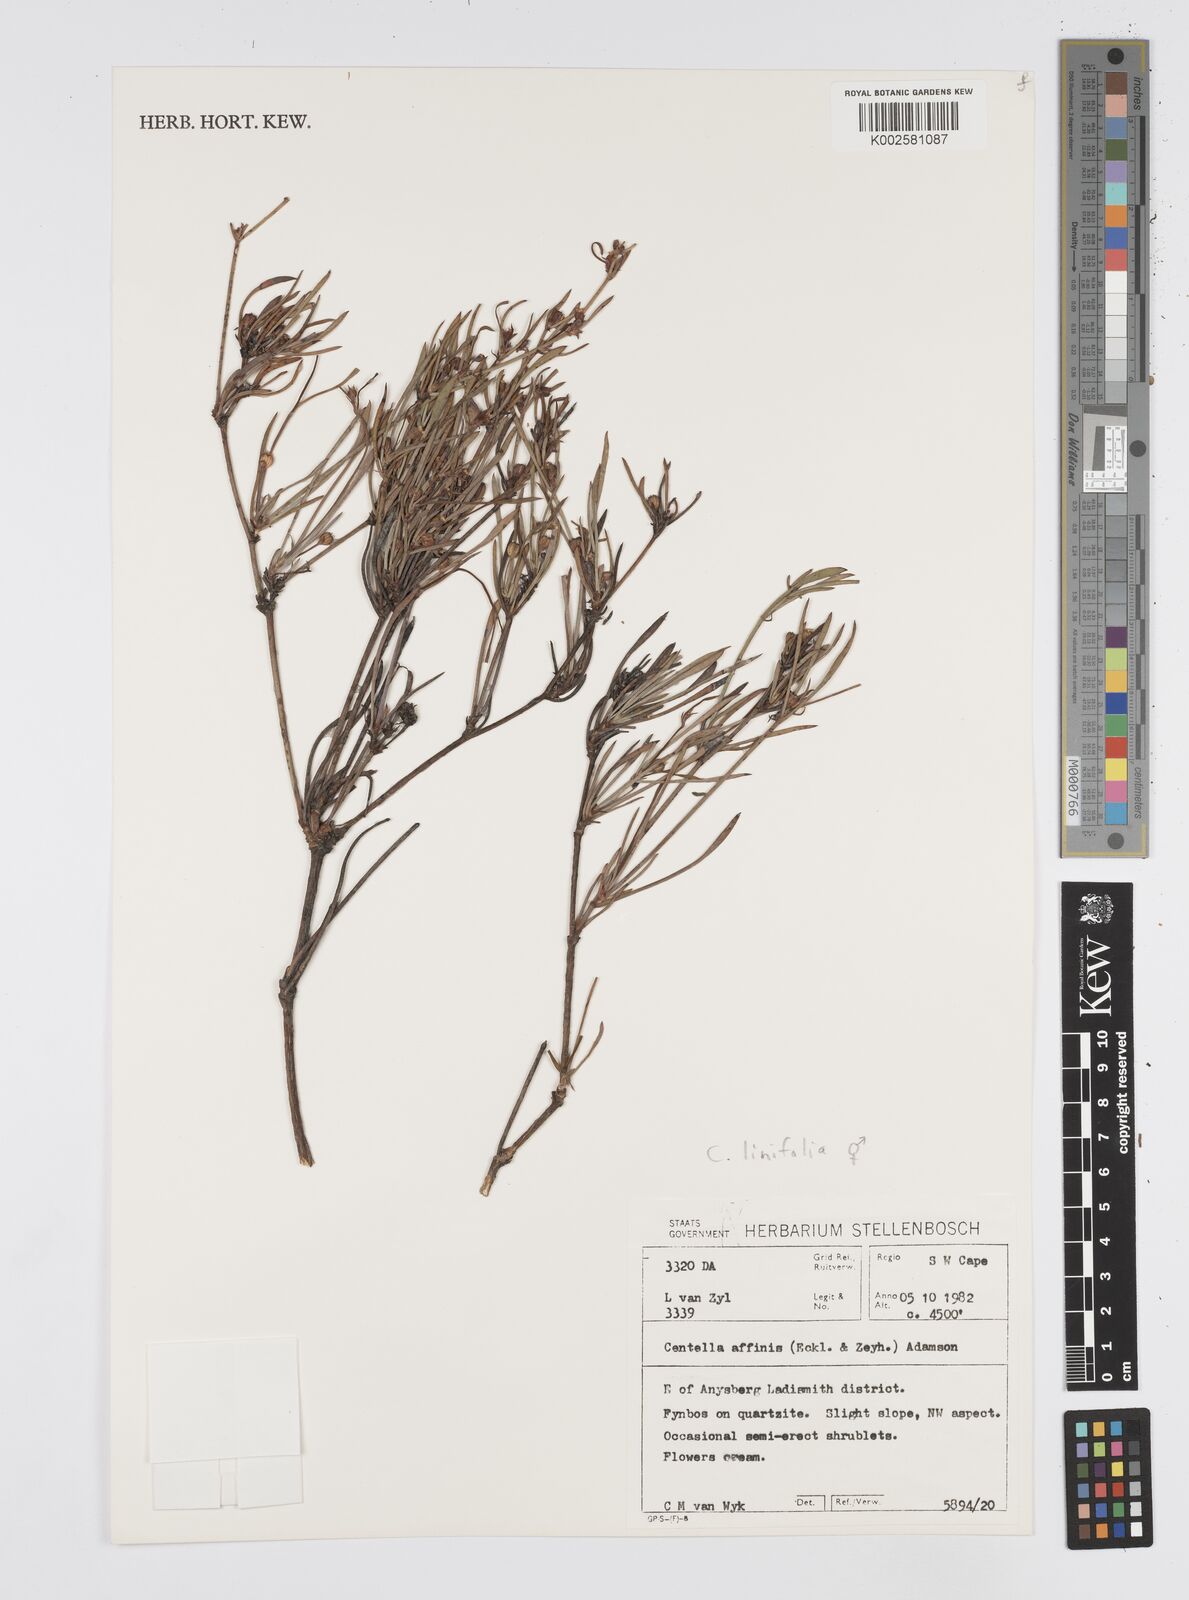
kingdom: Plantae
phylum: Tracheophyta
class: Magnoliopsida
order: Apiales
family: Apiaceae
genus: Centella
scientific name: Centella affinis
